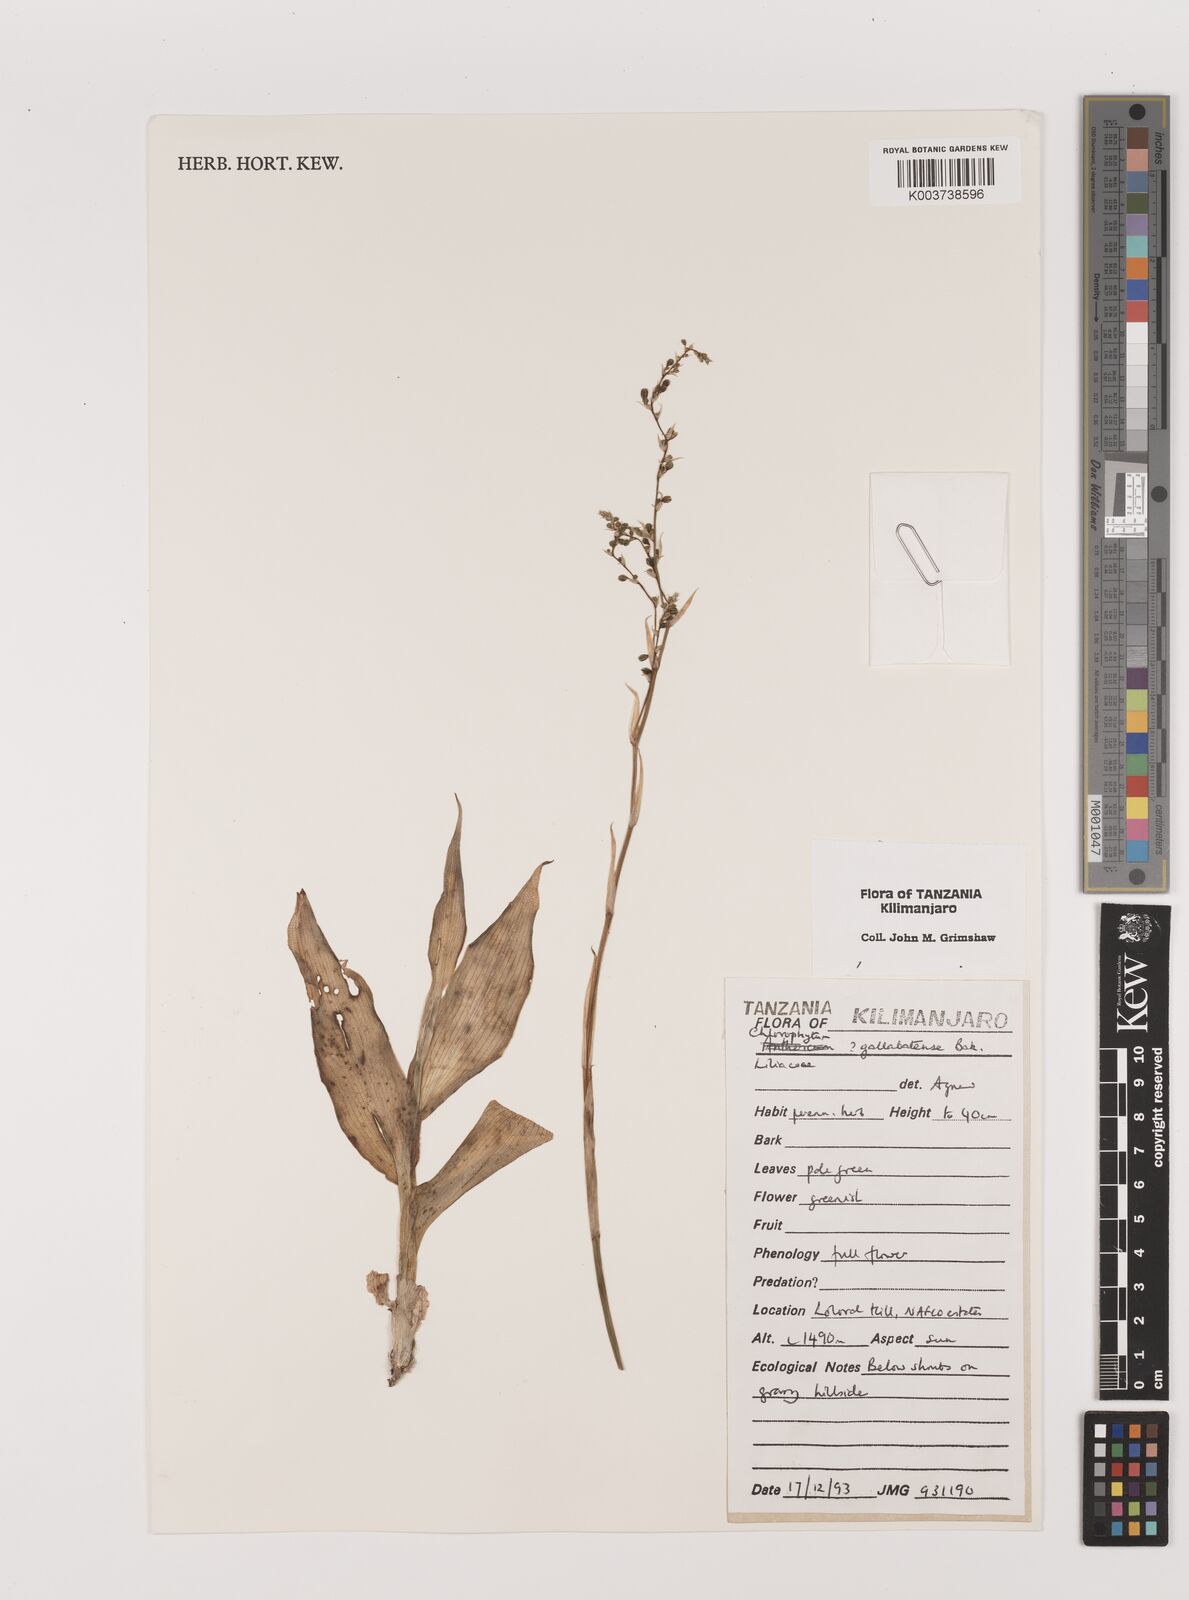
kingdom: Plantae
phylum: Tracheophyta
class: Liliopsida
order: Asparagales
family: Asparagaceae
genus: Chlorophytum
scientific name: Chlorophytum gallabatense
